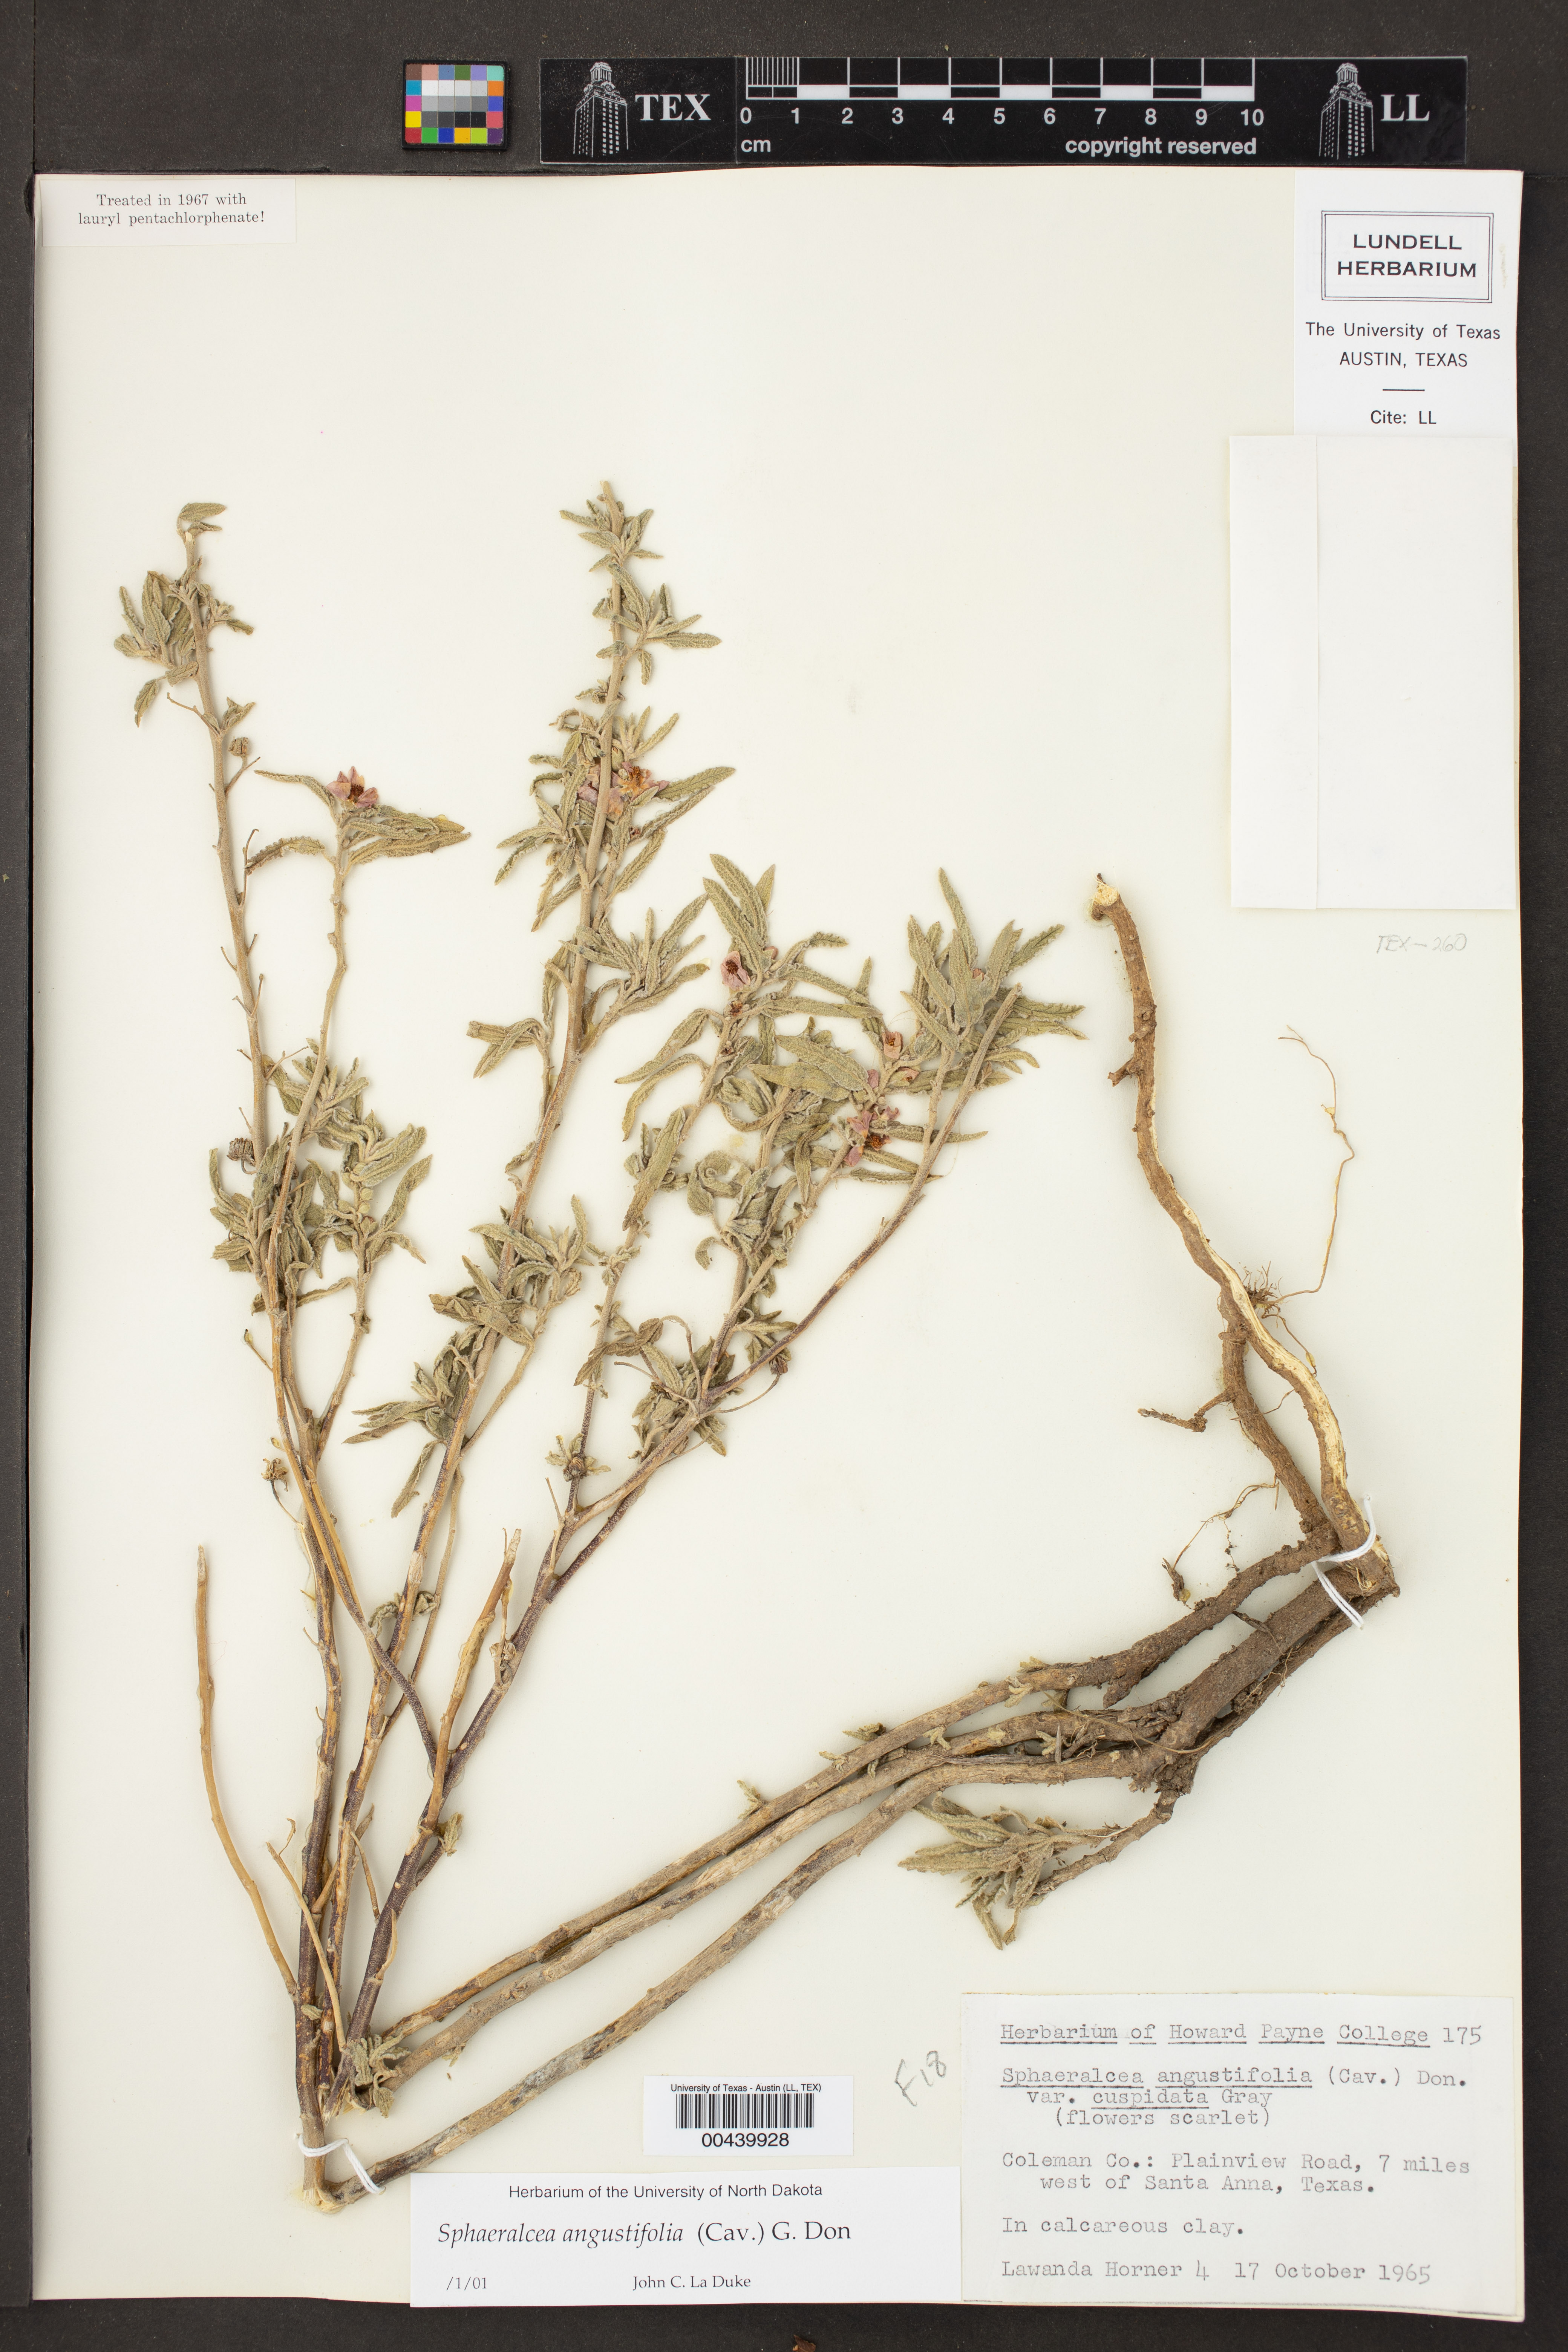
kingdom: Plantae
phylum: Tracheophyta
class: Magnoliopsida
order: Malvales
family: Malvaceae
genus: Sphaeralcea
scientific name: Sphaeralcea angustifolia
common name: Copper globe-mallow
